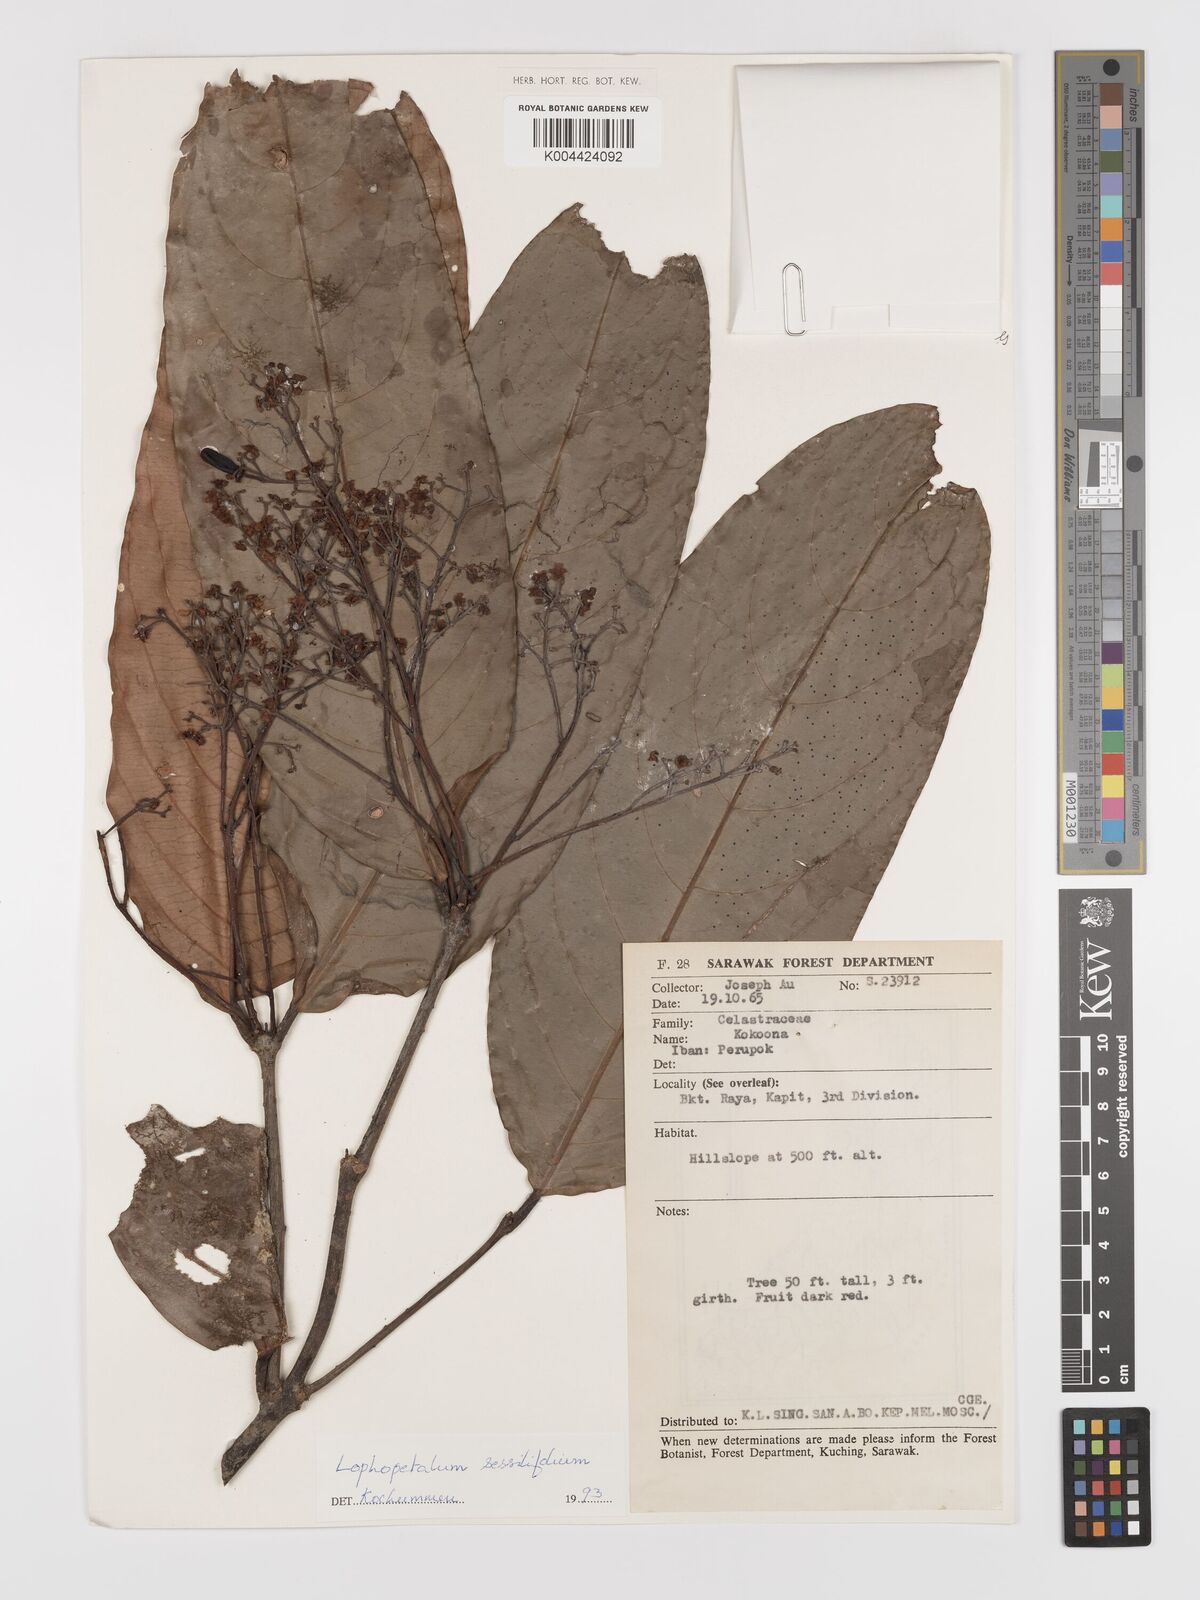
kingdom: Plantae
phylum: Tracheophyta
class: Magnoliopsida
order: Celastrales
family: Celastraceae
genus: Lophopetalum
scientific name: Lophopetalum sessilifolium
